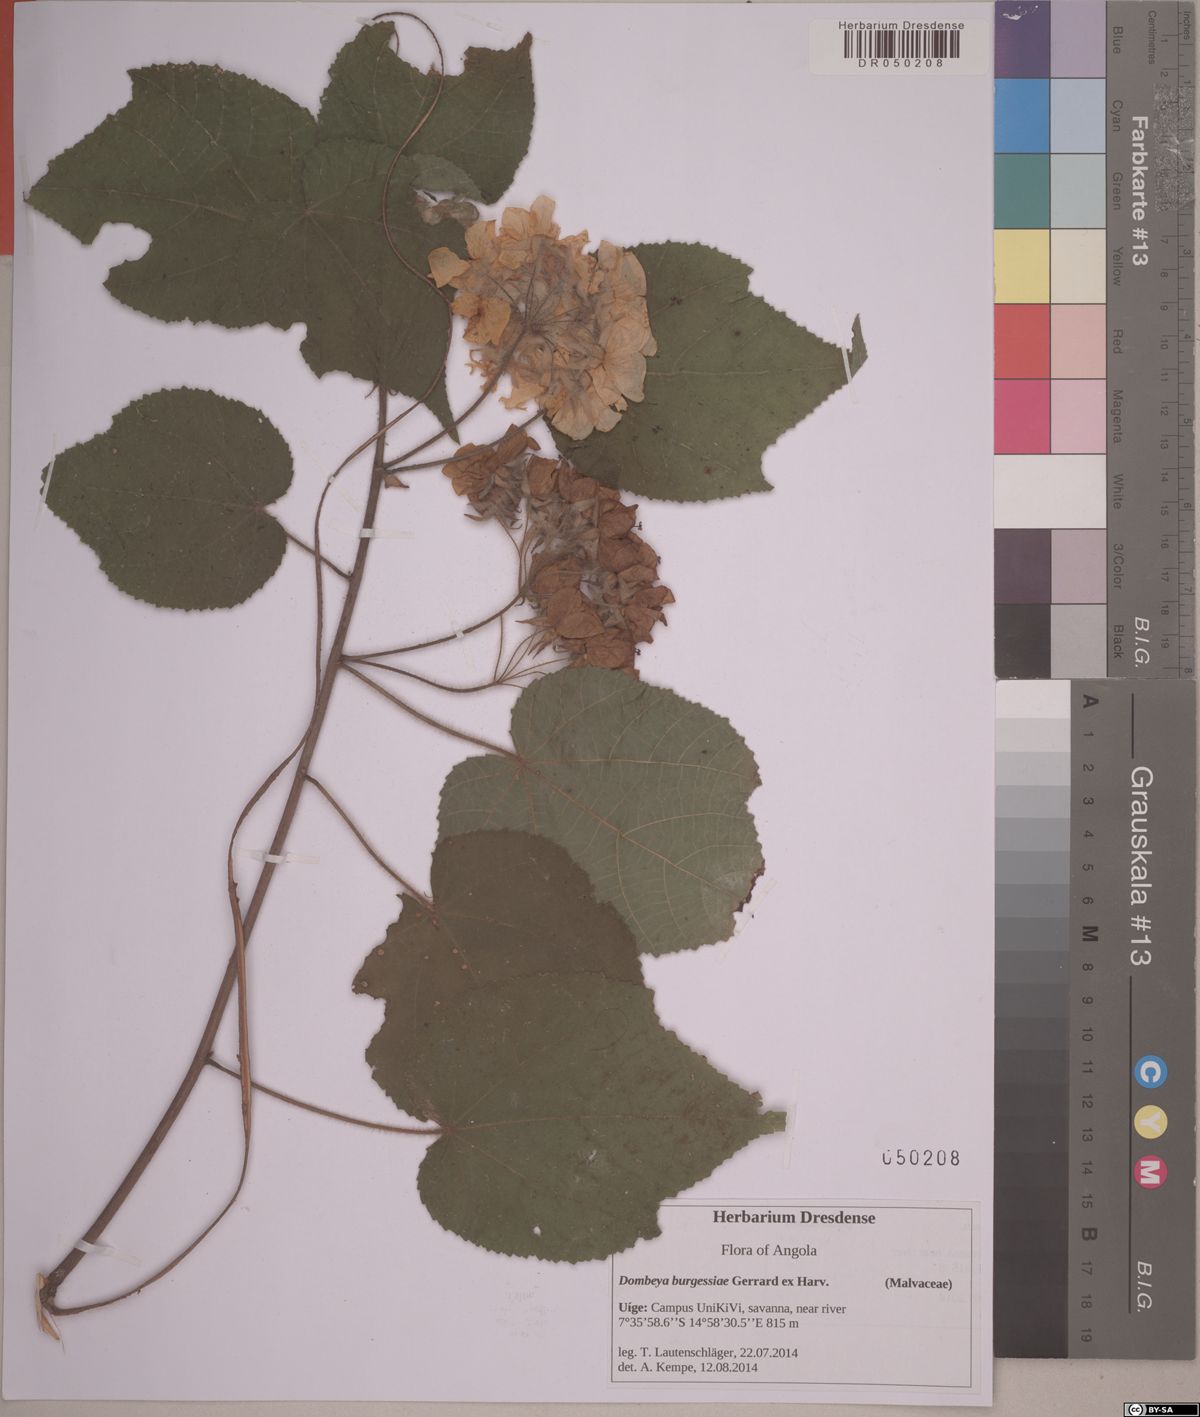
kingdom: Plantae
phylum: Tracheophyta
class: Magnoliopsida
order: Malvales
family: Malvaceae
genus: Dombeya
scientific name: Dombeya burgessiae
